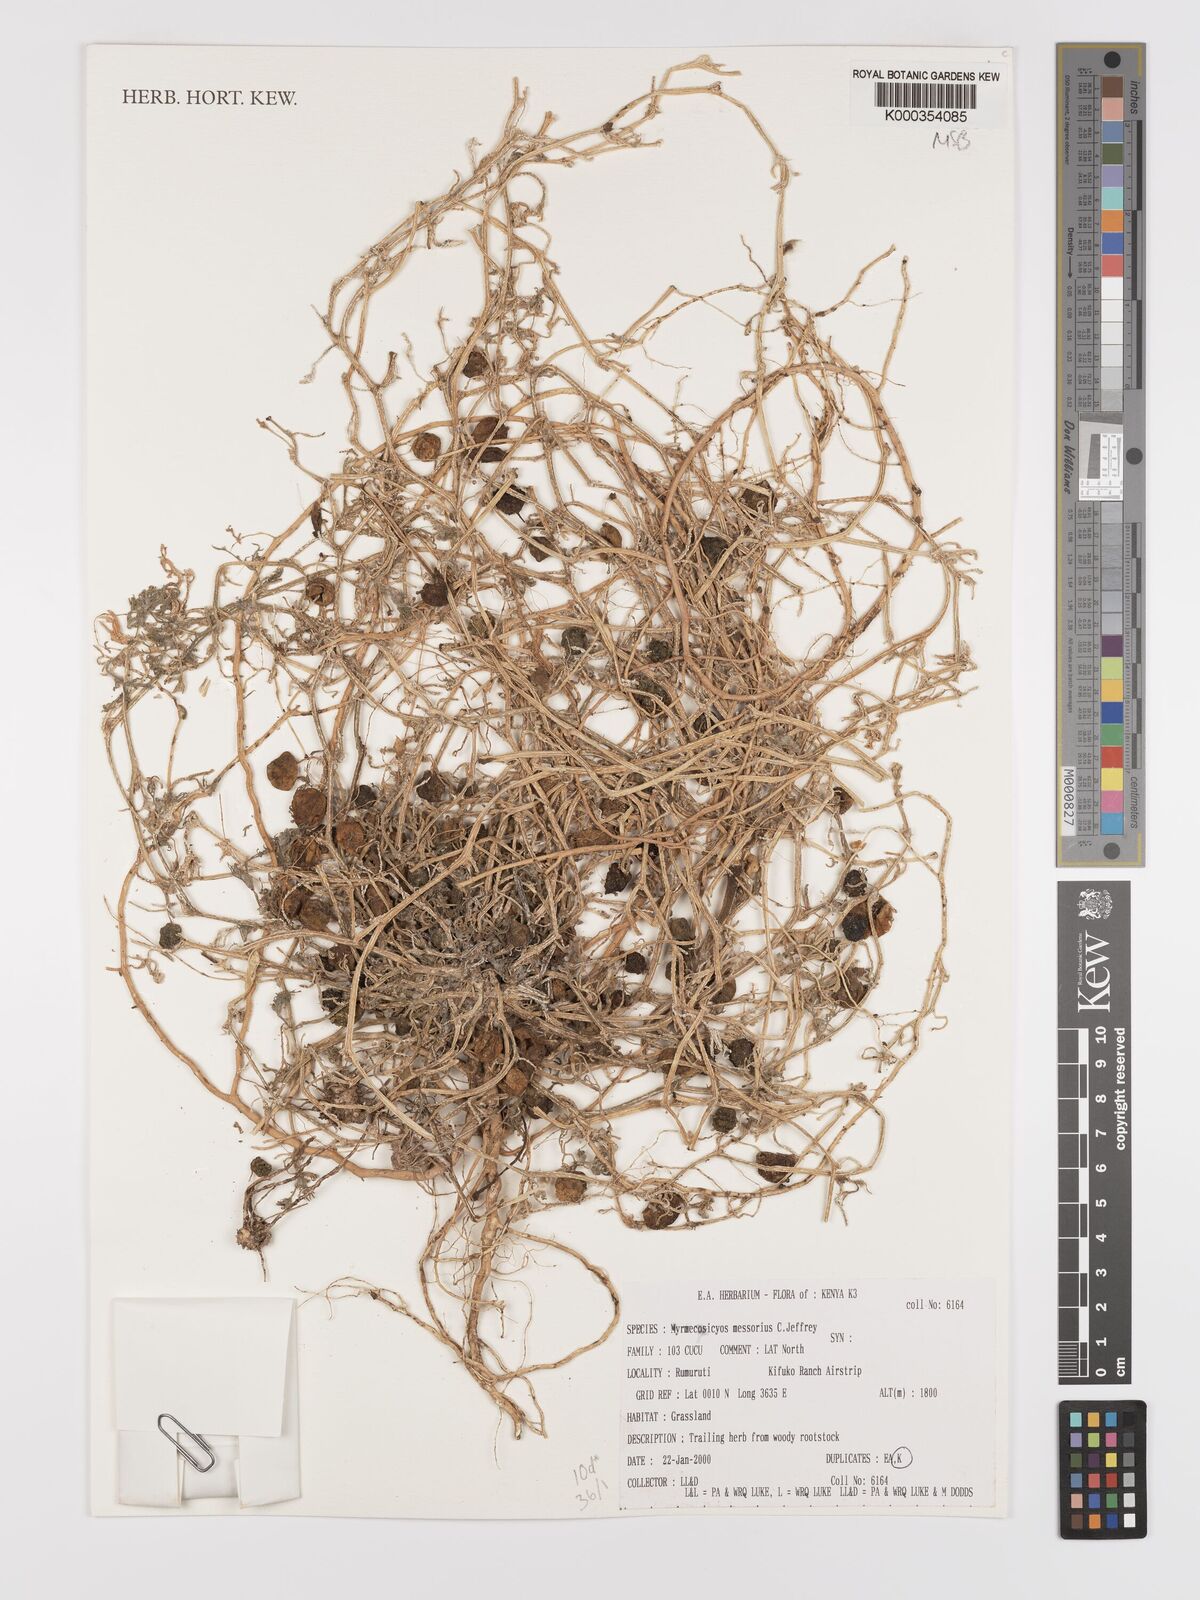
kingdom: Plantae
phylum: Tracheophyta
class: Magnoliopsida
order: Cucurbitales
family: Cucurbitaceae
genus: Cucumis
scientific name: Cucumis messorius
